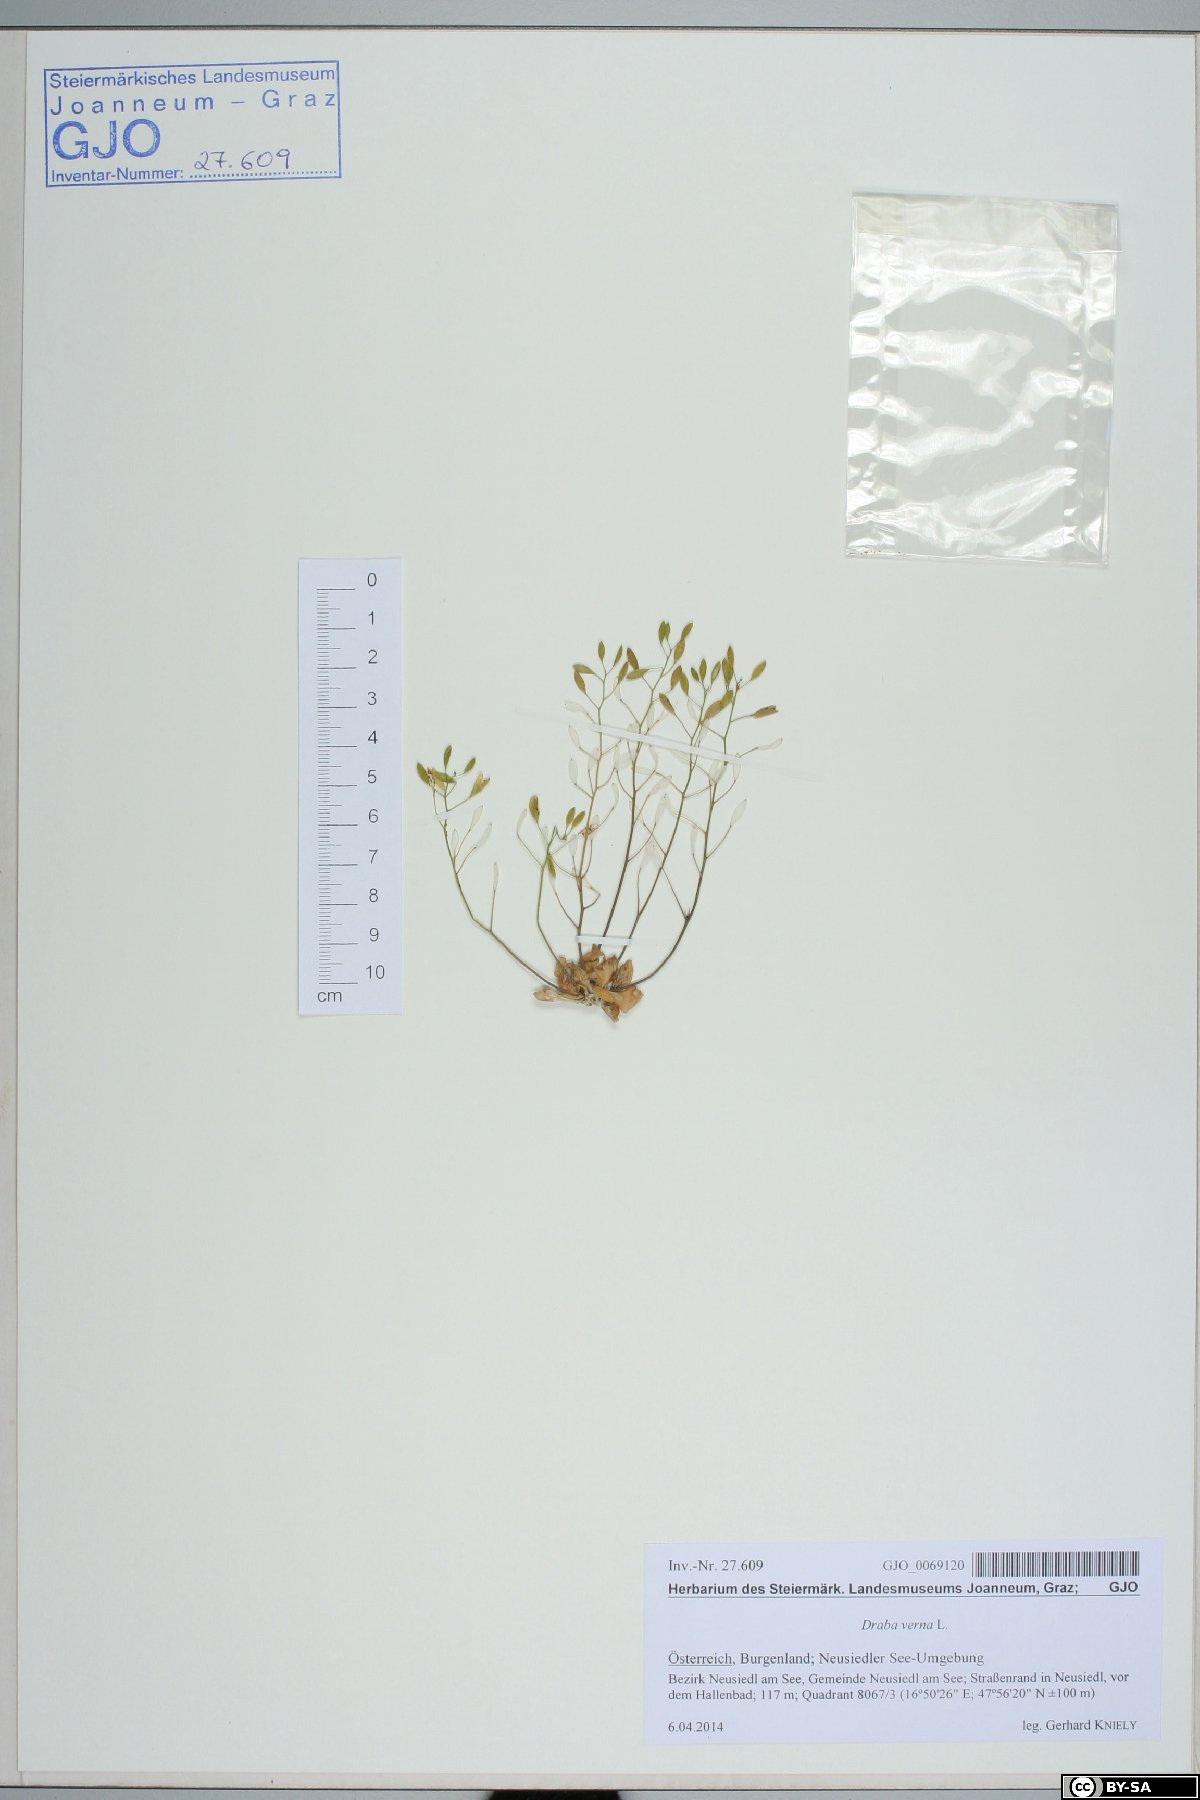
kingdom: Plantae
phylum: Tracheophyta
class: Magnoliopsida
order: Brassicales
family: Brassicaceae
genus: Draba
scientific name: Draba verna
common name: Spring draba
